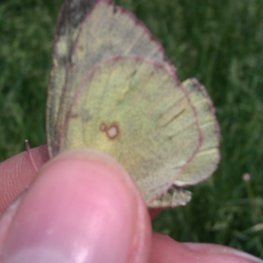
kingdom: Animalia
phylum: Arthropoda
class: Insecta
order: Lepidoptera
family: Pieridae
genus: Colias
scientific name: Colias philodice
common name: Clouded Sulphur
